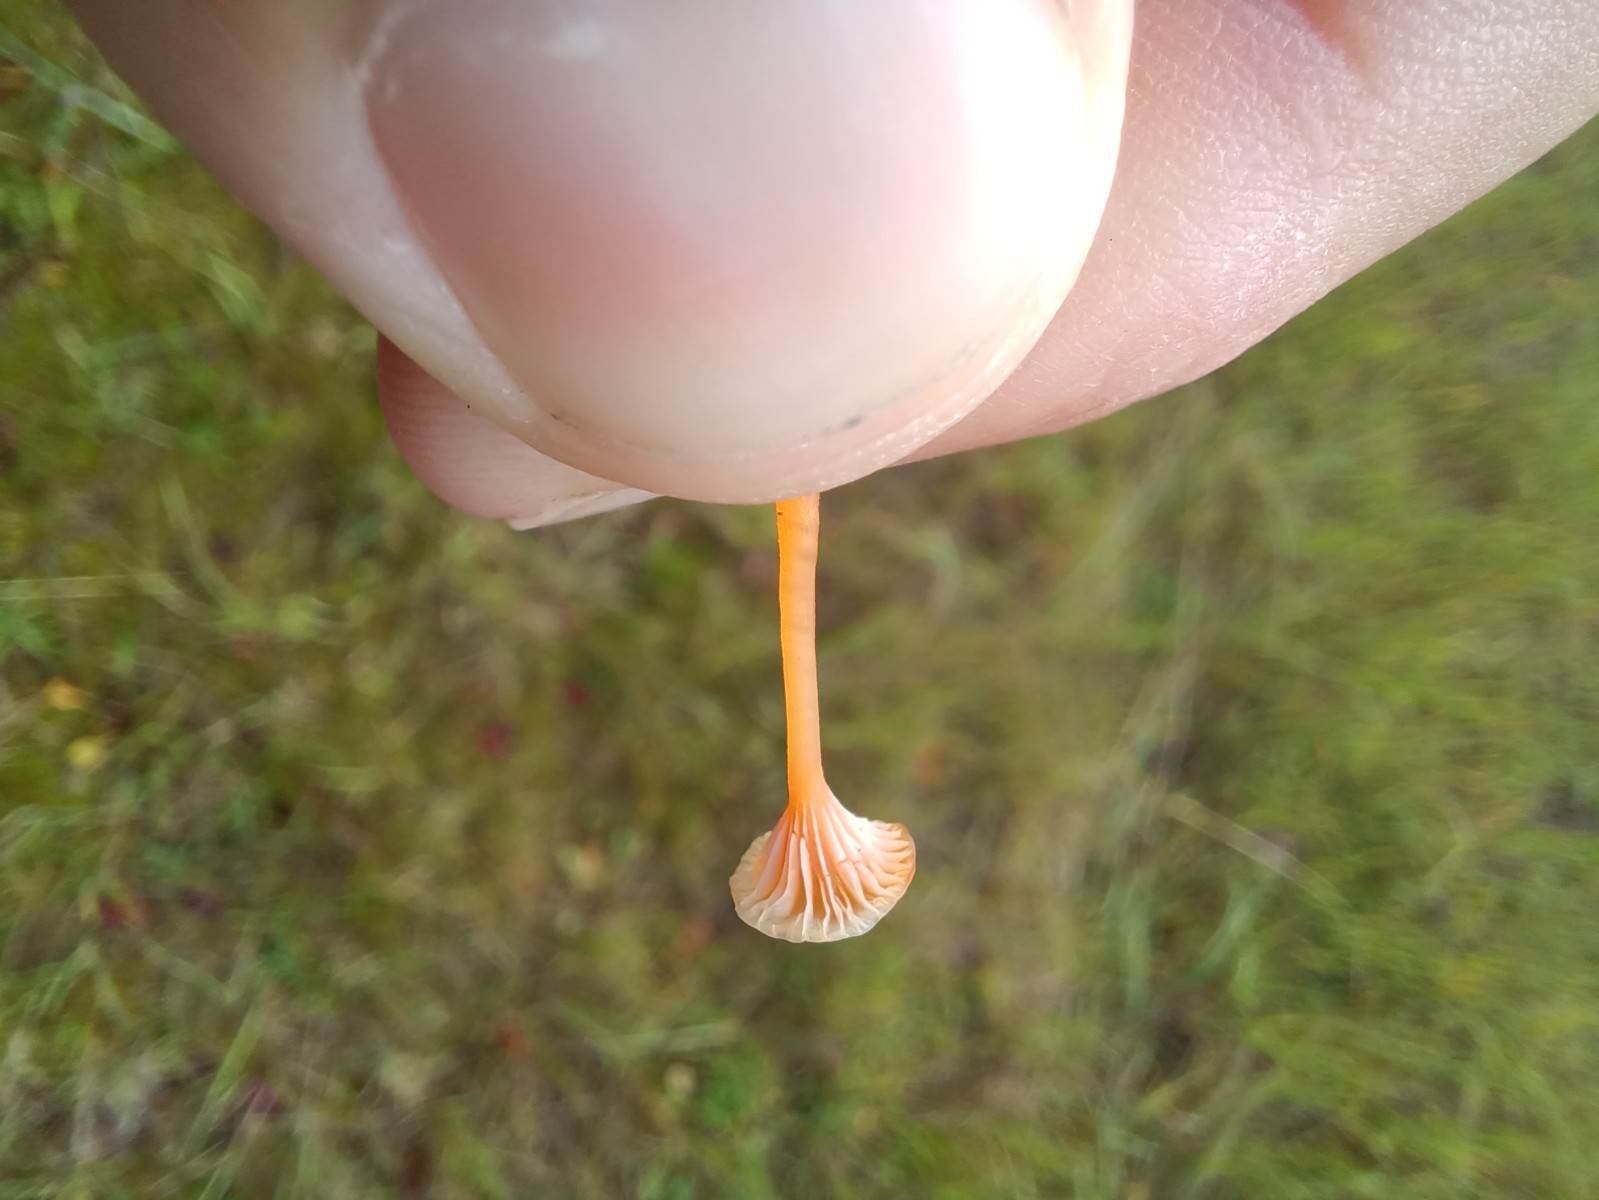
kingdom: Fungi
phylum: Basidiomycota
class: Agaricomycetes
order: Hymenochaetales
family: Rickenellaceae
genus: Rickenella
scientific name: Rickenella fibula
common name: orange mosnavlehat
